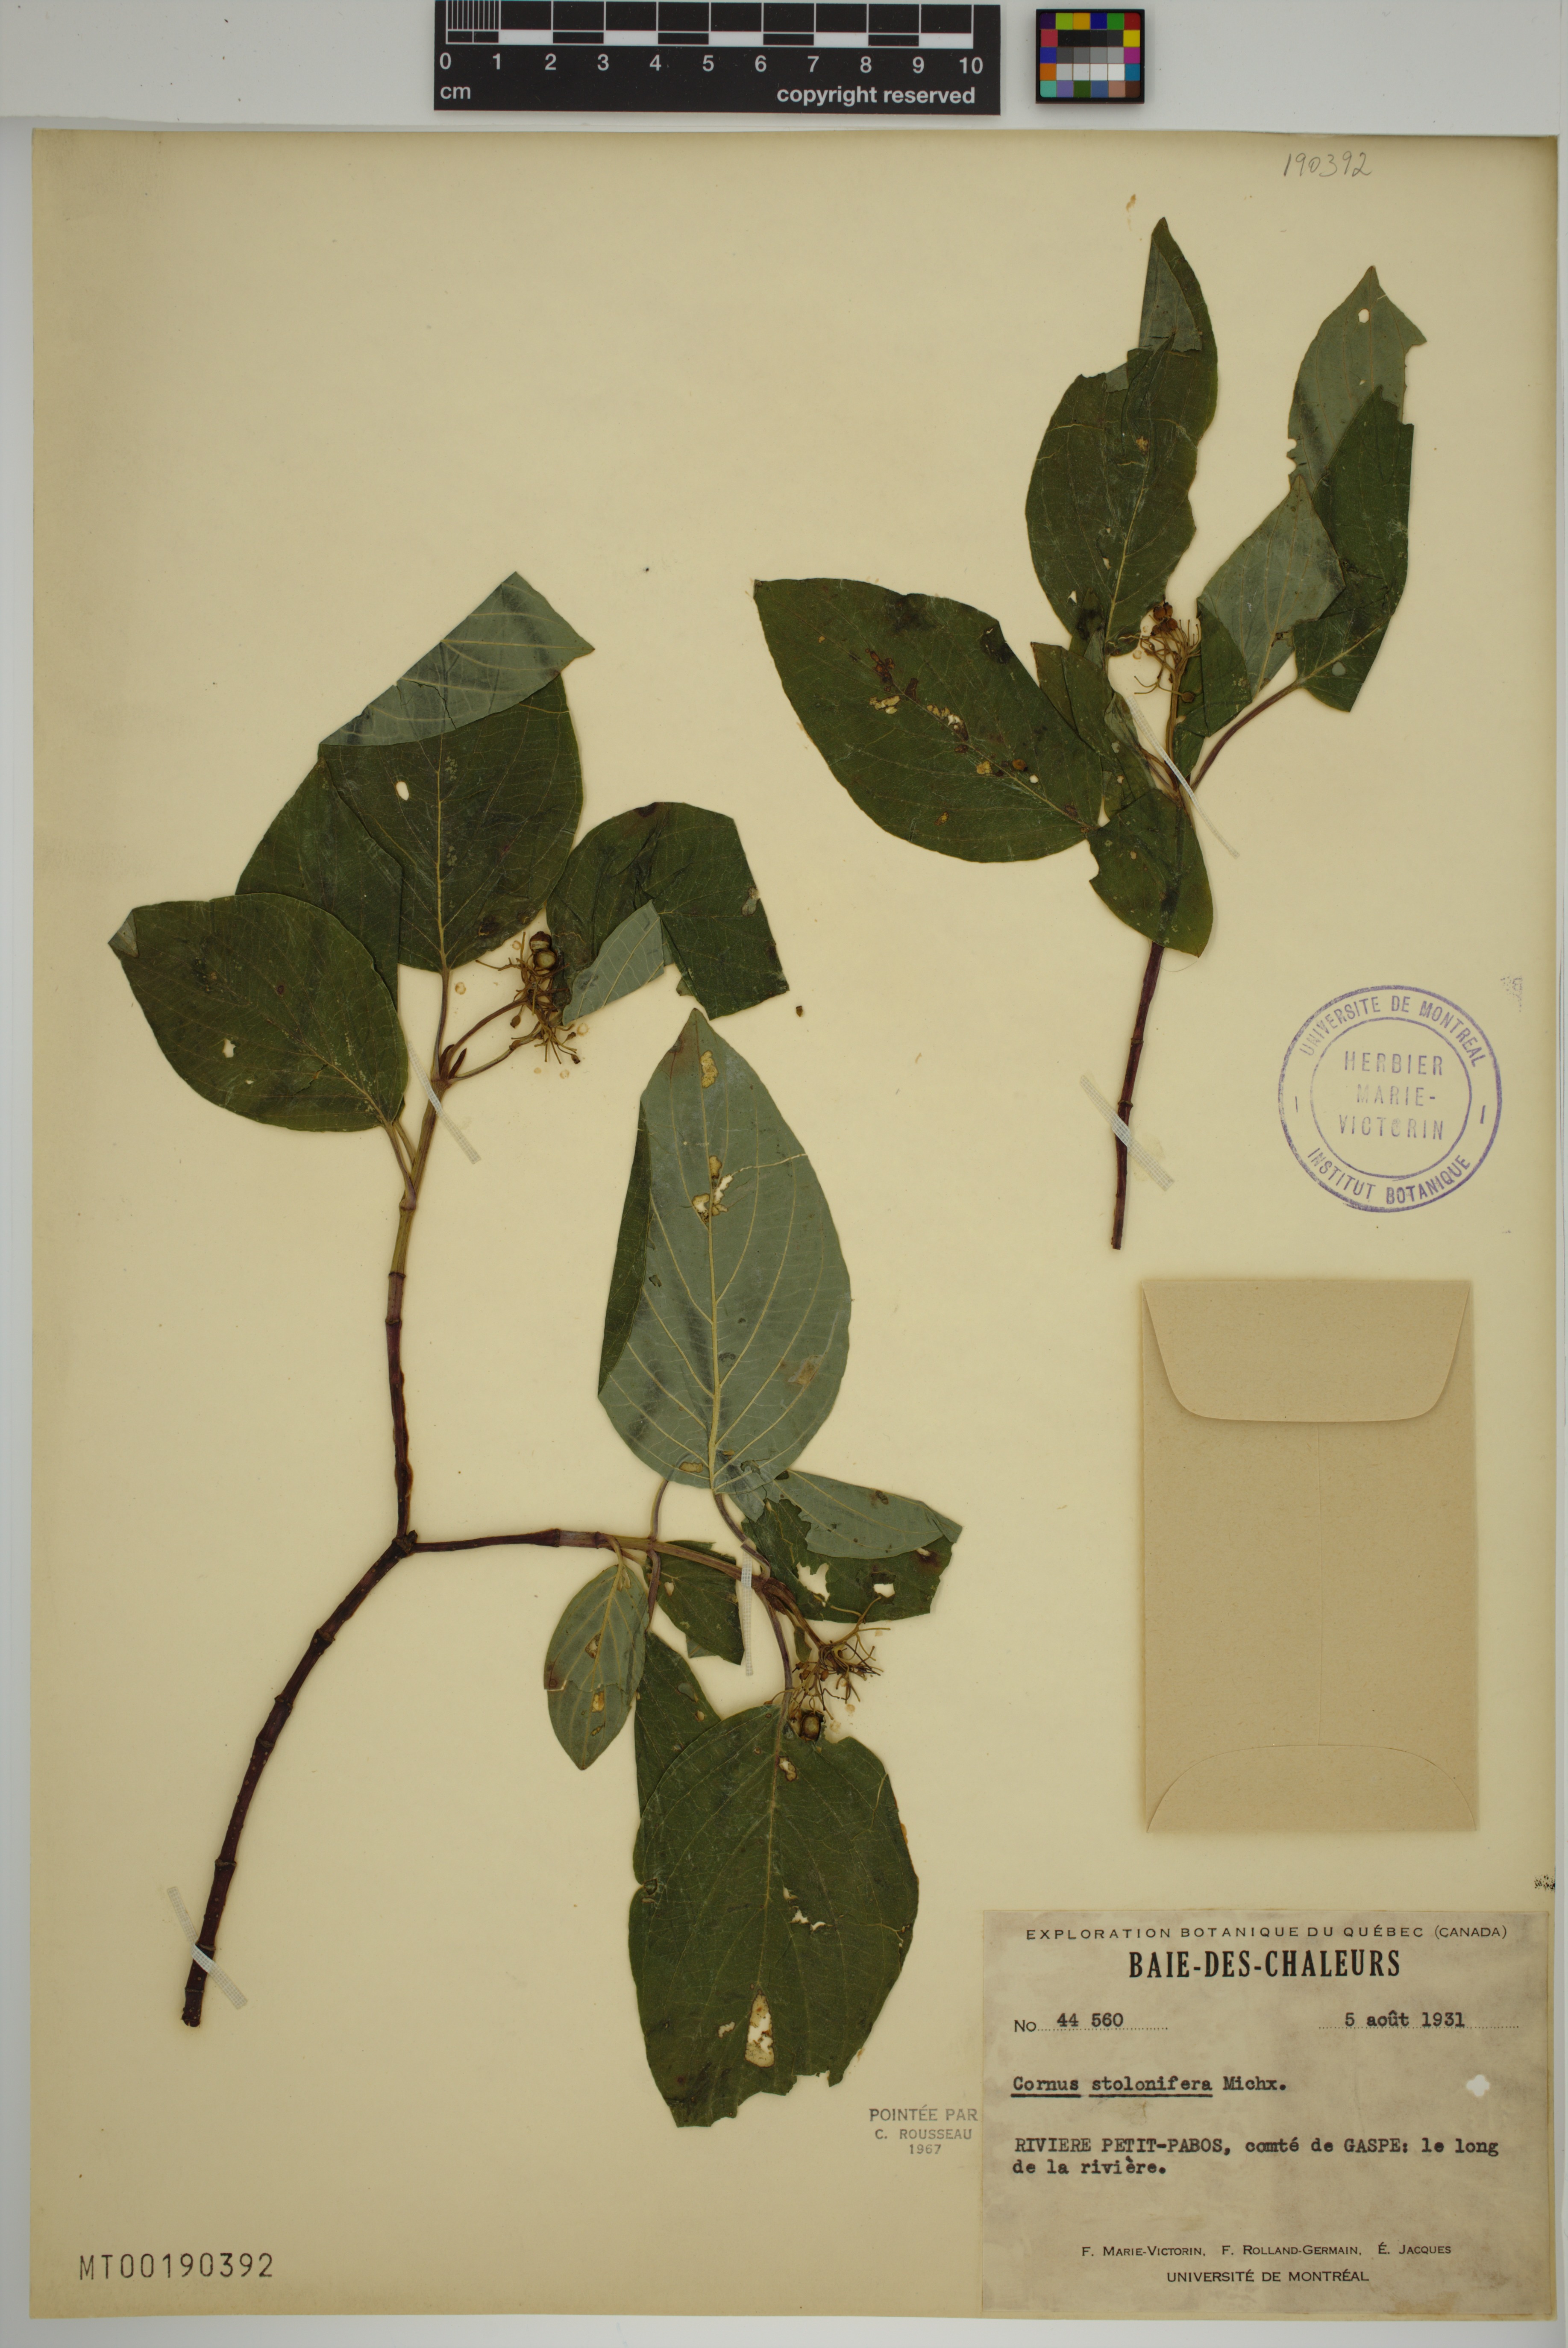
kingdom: Plantae
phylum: Tracheophyta
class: Magnoliopsida
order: Cornales
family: Cornaceae
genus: Cornus
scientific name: Cornus sericea
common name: Red-osier dogwood
